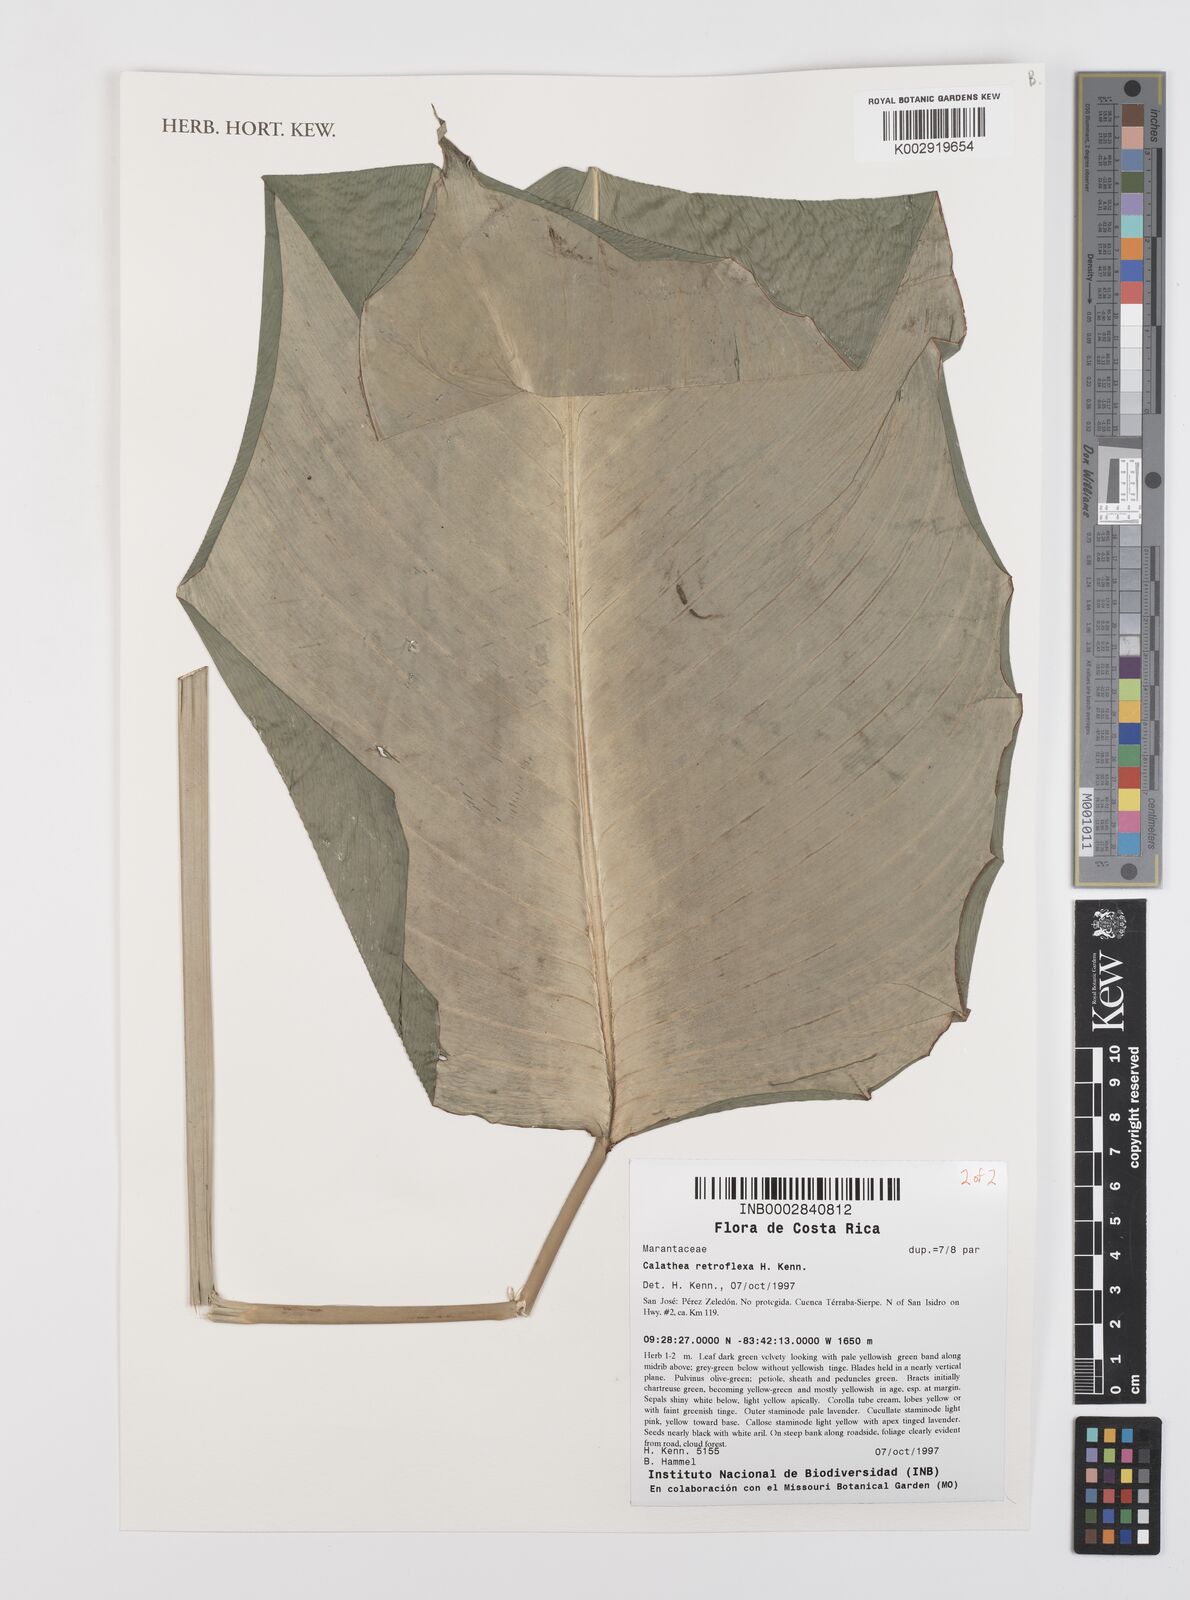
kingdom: Plantae
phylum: Tracheophyta
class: Liliopsida
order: Zingiberales
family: Marantaceae
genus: Calathea
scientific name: Calathea retroflexa
